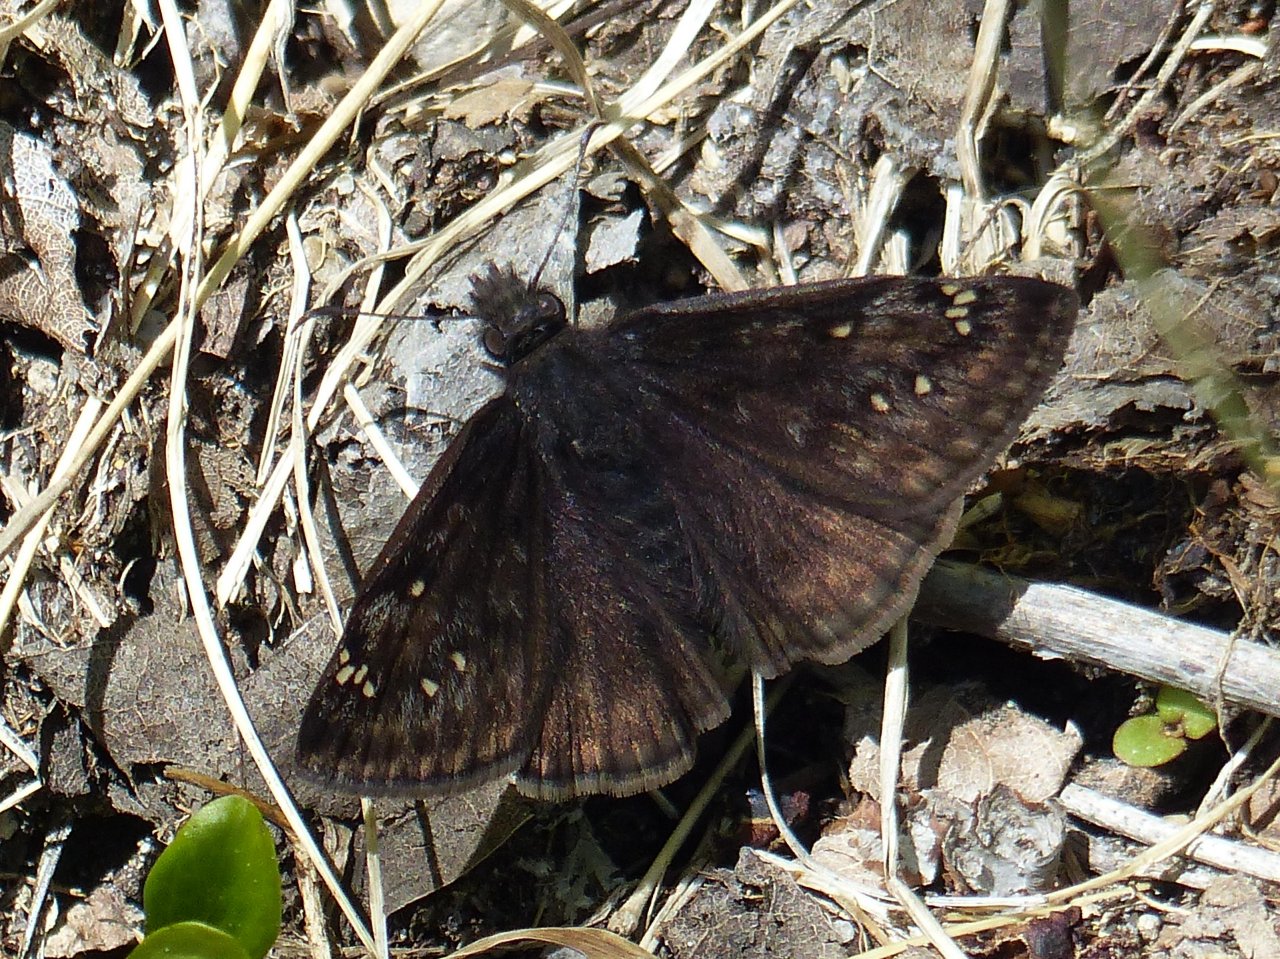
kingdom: Animalia
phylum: Arthropoda
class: Insecta
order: Lepidoptera
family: Hesperiidae
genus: Gesta
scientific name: Gesta
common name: Juvenal's Duskywing
